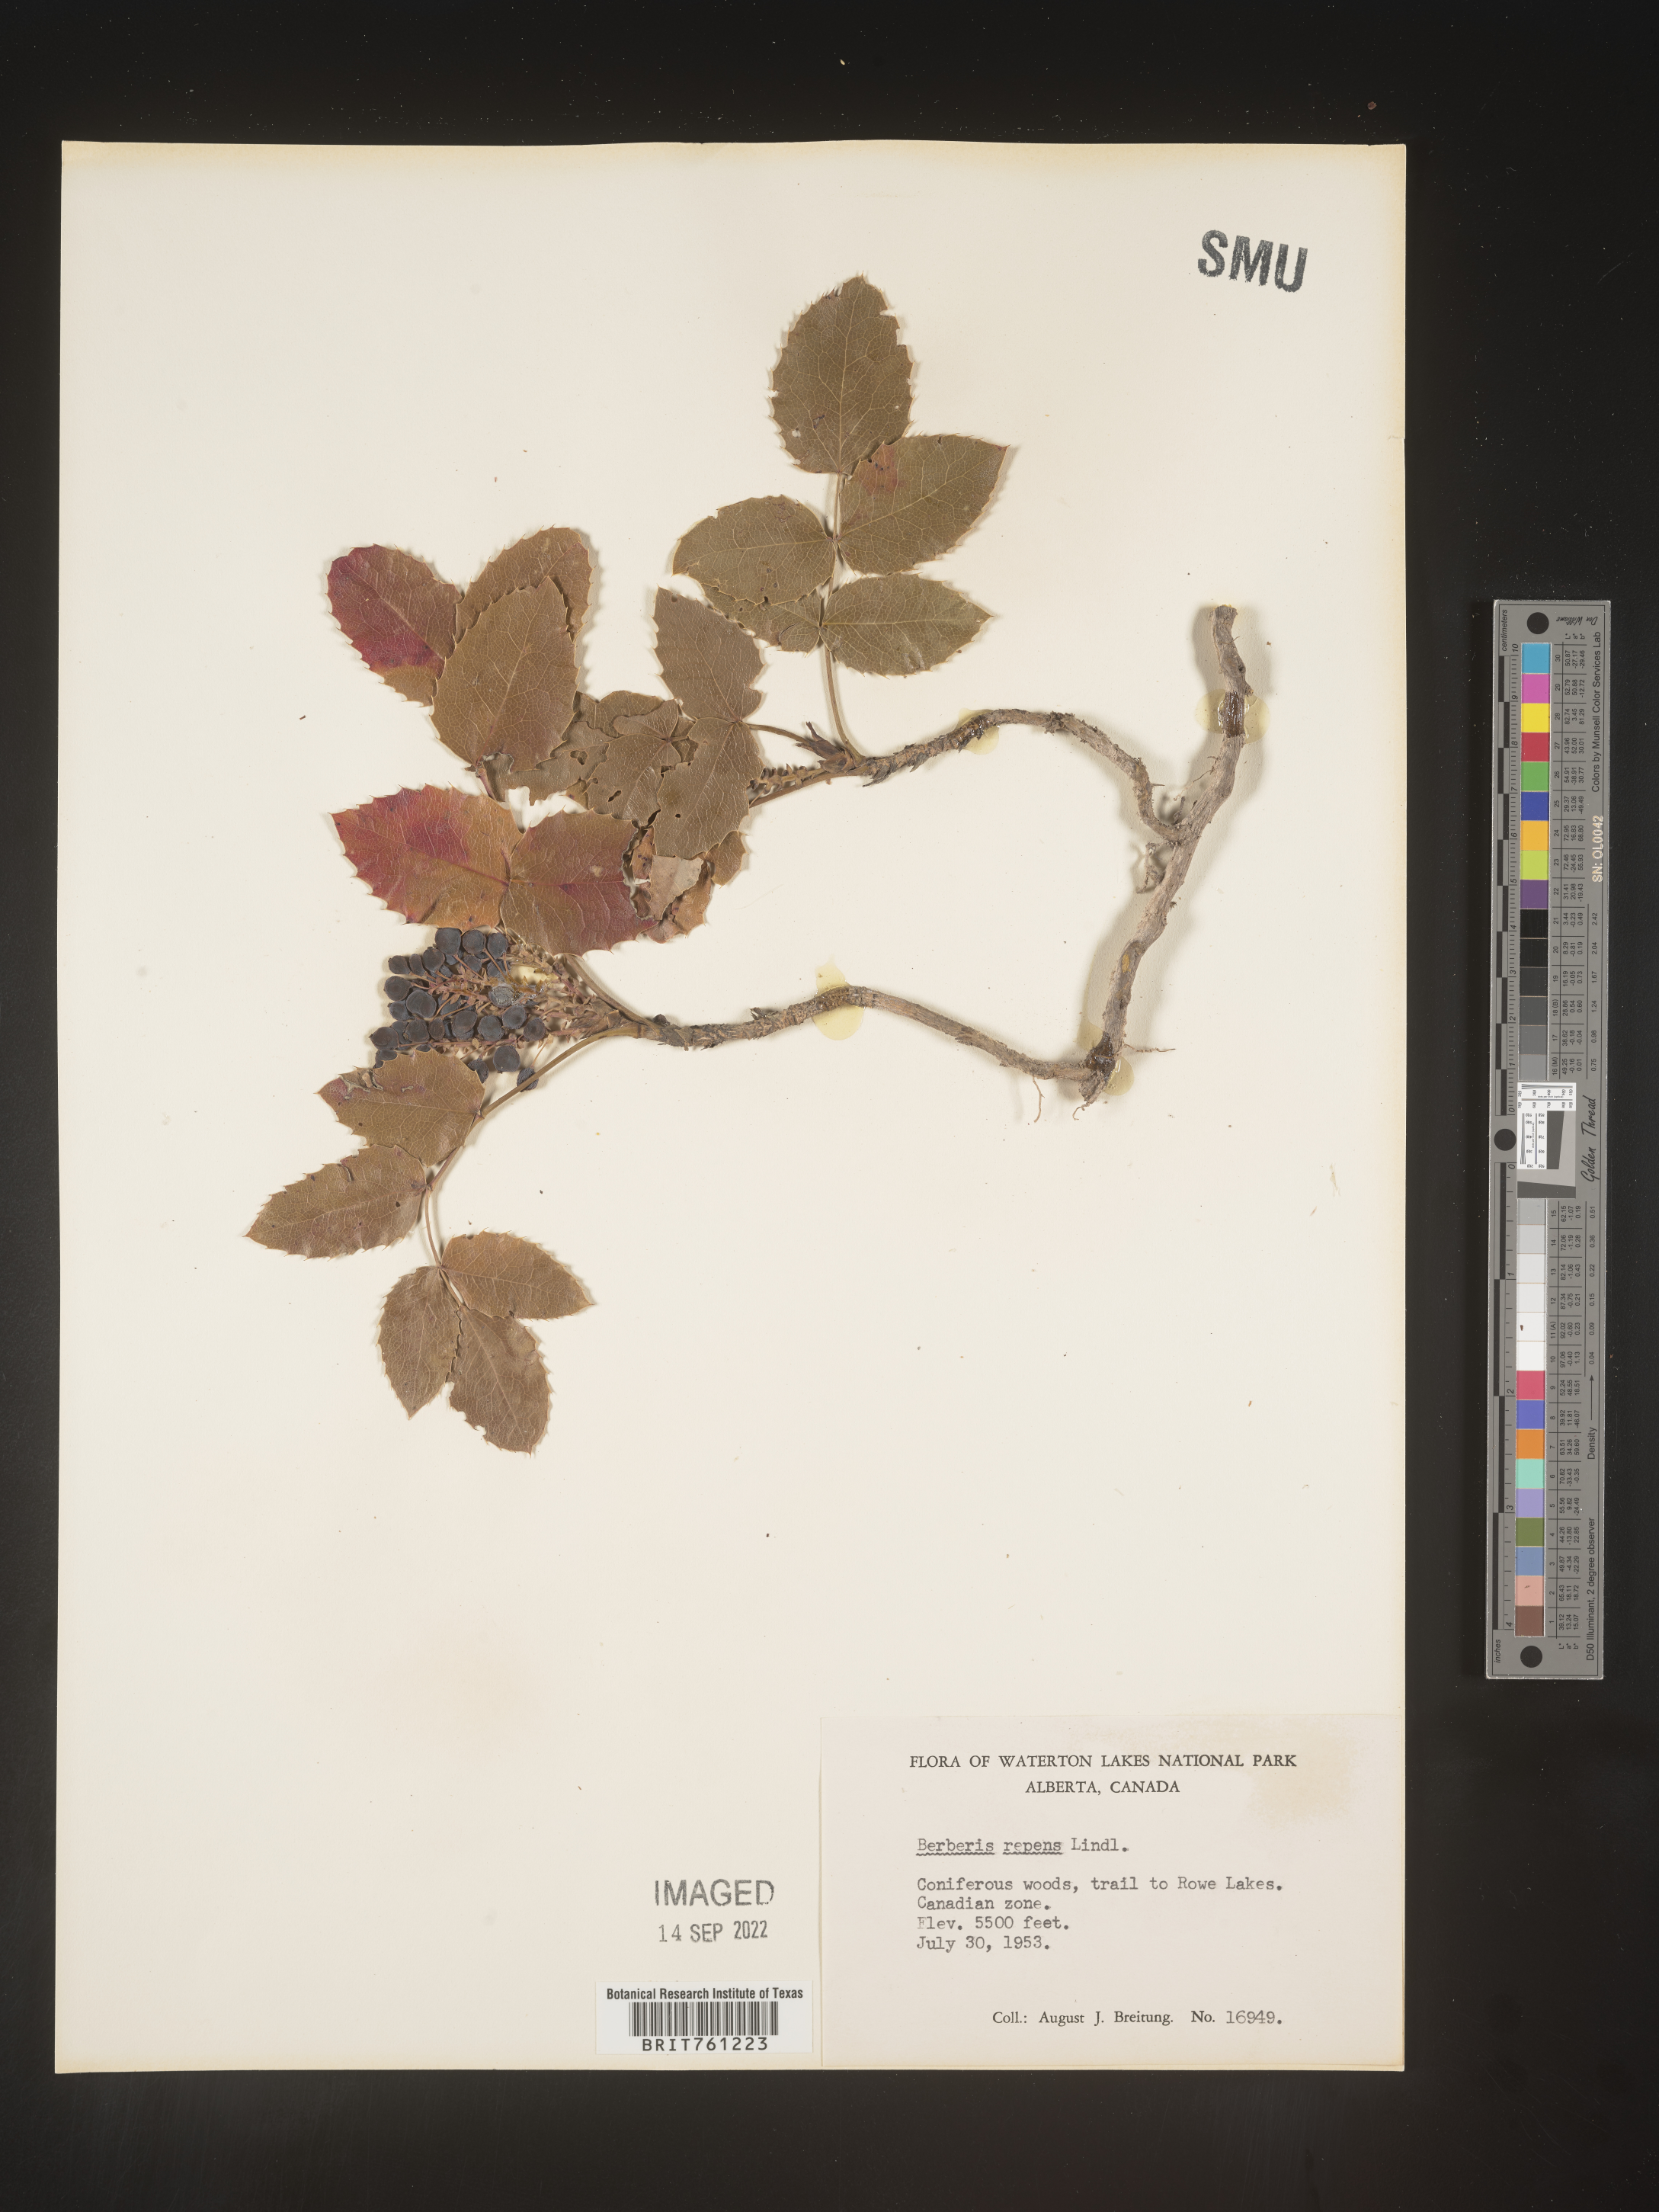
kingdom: Plantae
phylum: Tracheophyta
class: Magnoliopsida
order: Ranunculales
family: Berberidaceae
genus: Mahonia
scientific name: Mahonia repens
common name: Creeping oregon-grape
